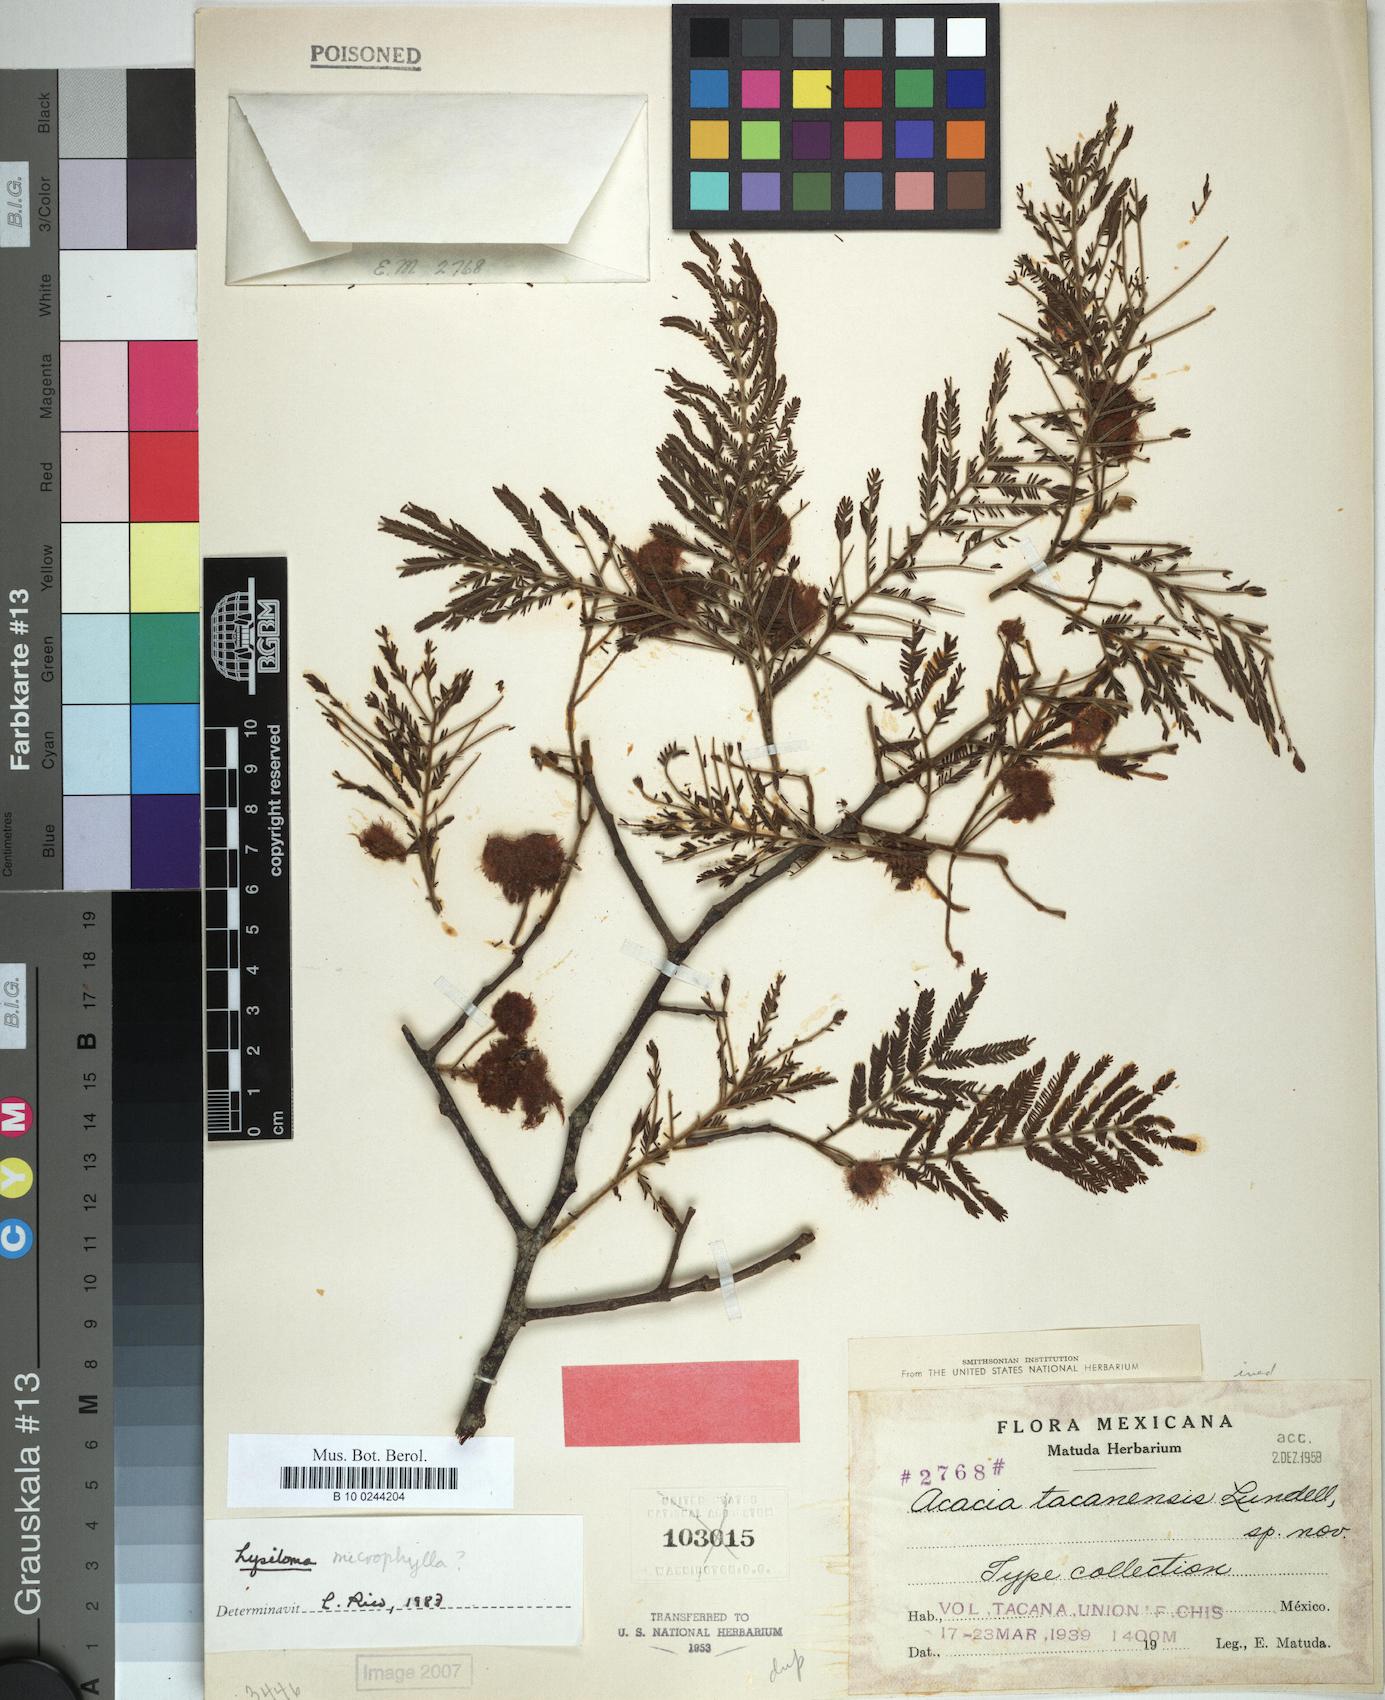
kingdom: Plantae
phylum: Tracheophyta
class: Magnoliopsida
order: Fabales
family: Fabaceae
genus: Acacia
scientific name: Acacia
